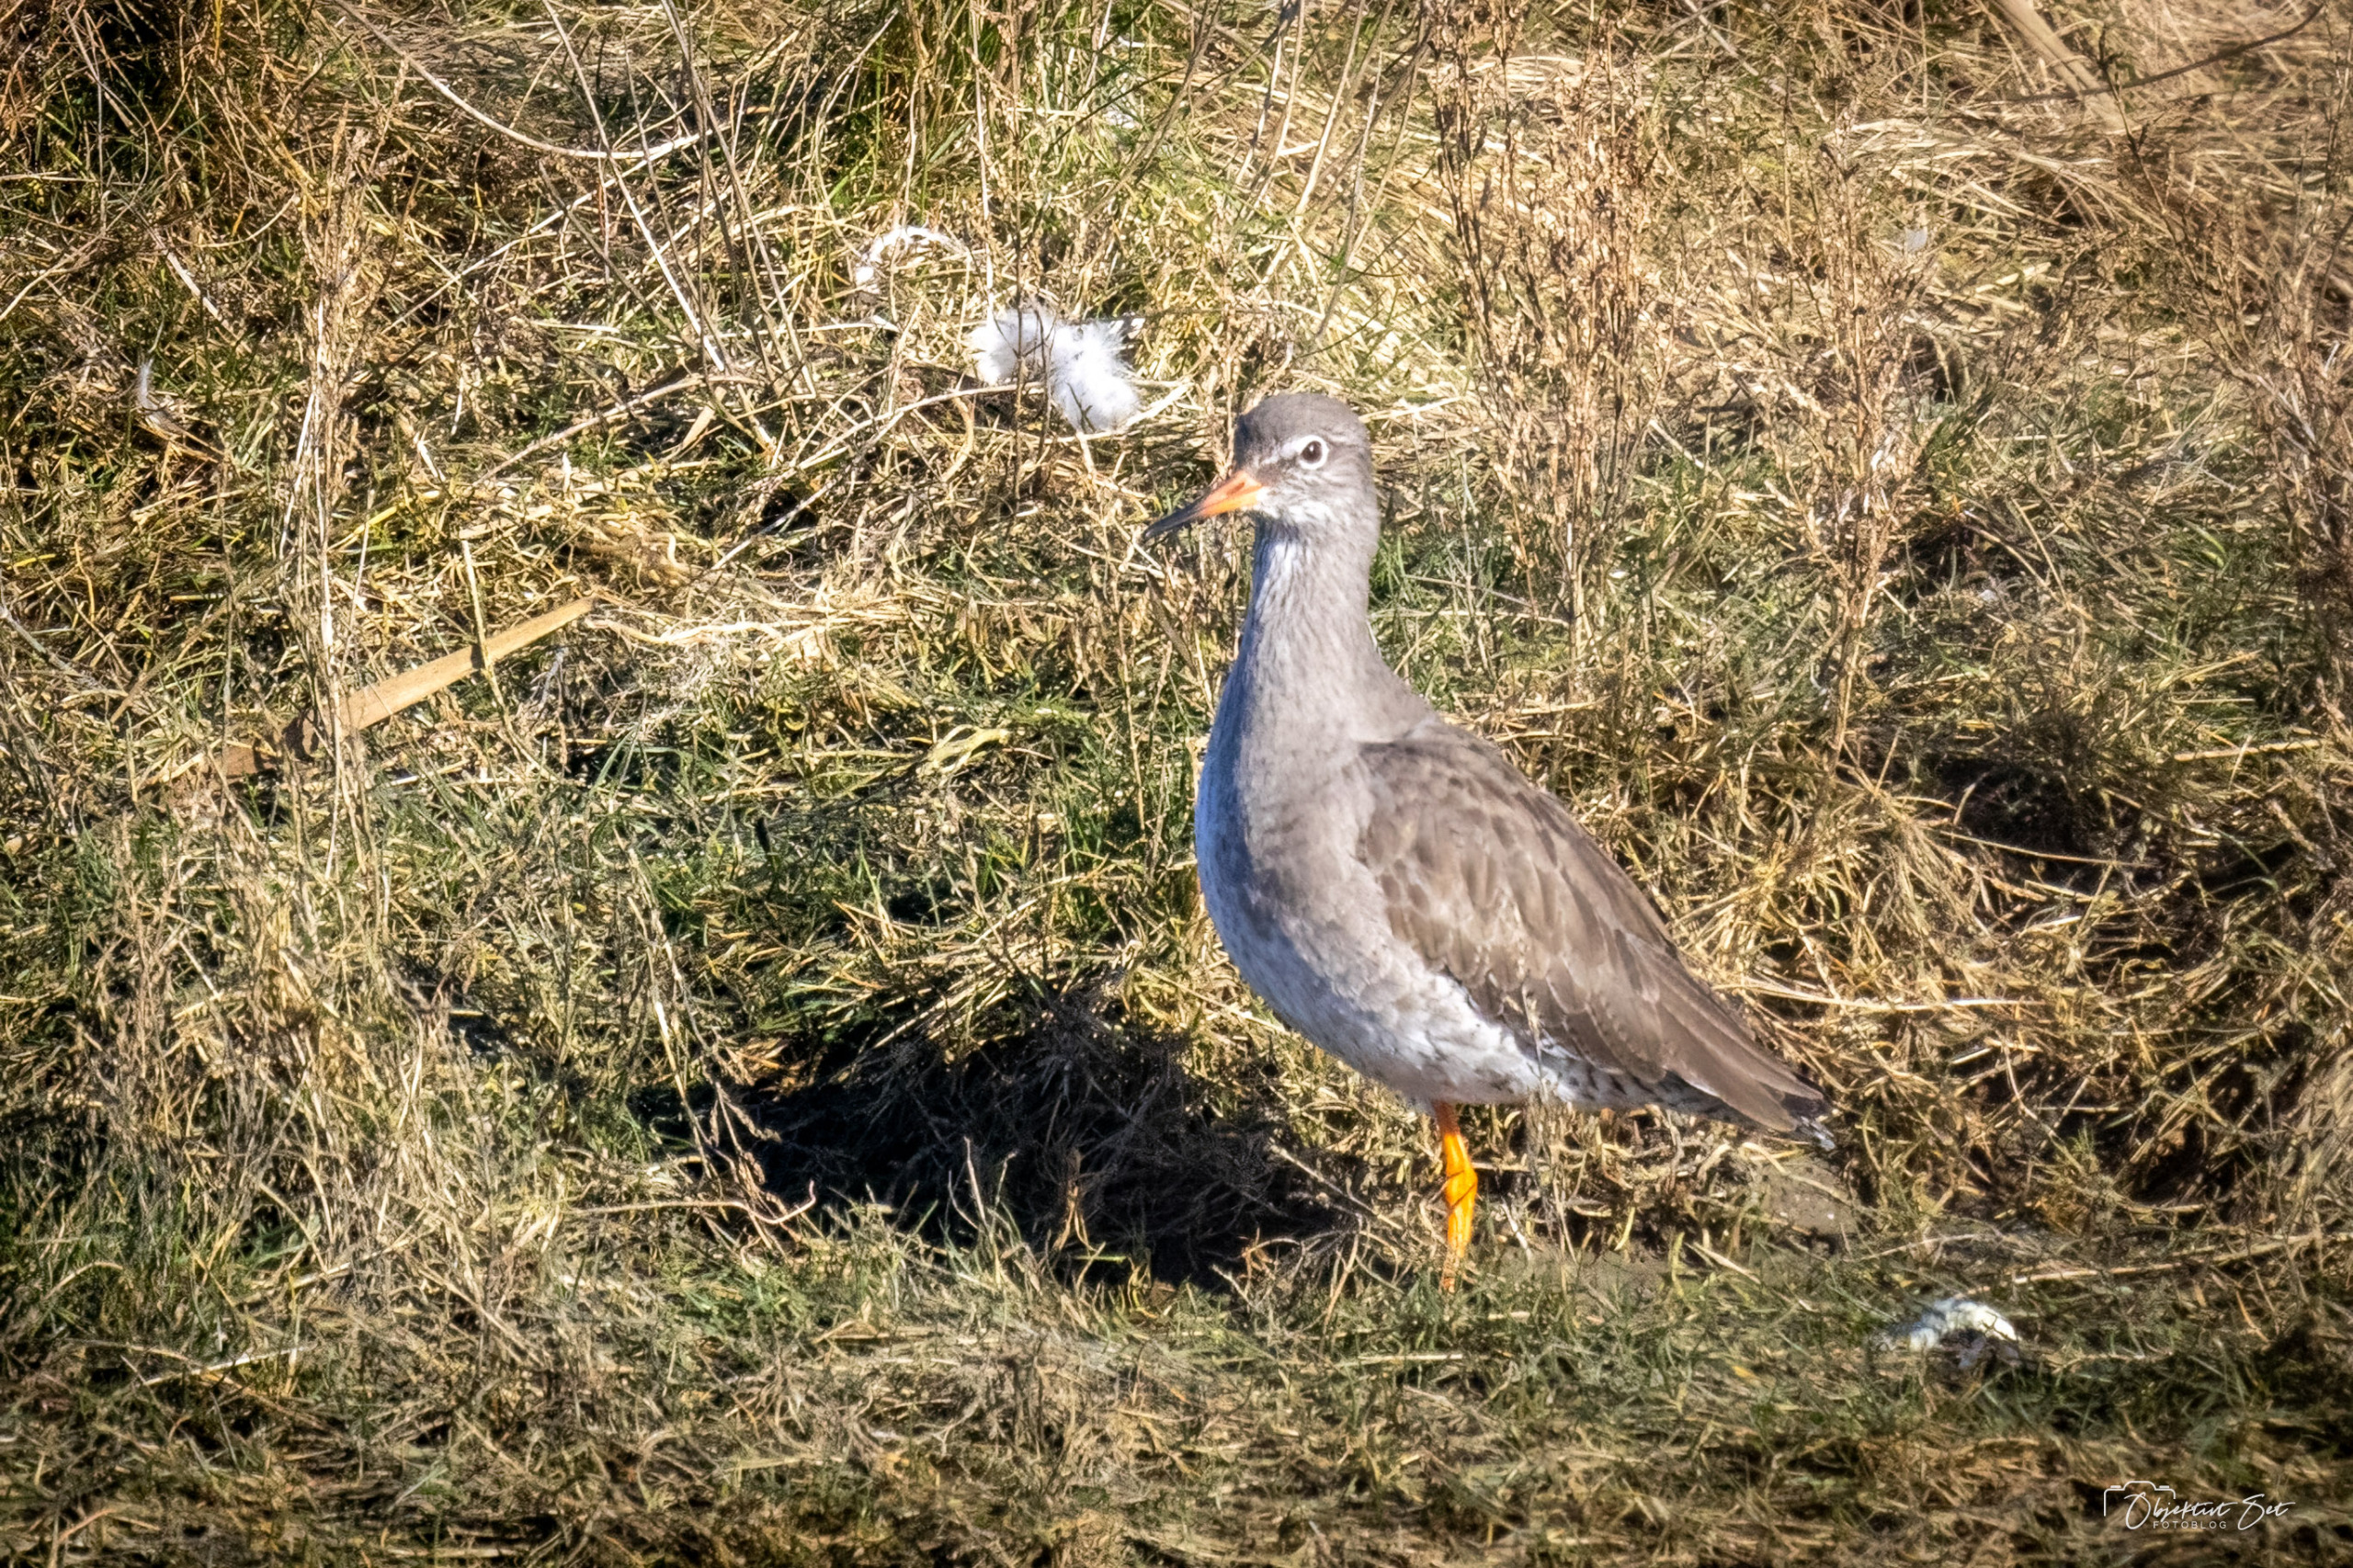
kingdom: Animalia
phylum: Chordata
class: Aves
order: Charadriiformes
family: Scolopacidae
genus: Calidris
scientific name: Calidris pugnax
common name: Brushane
